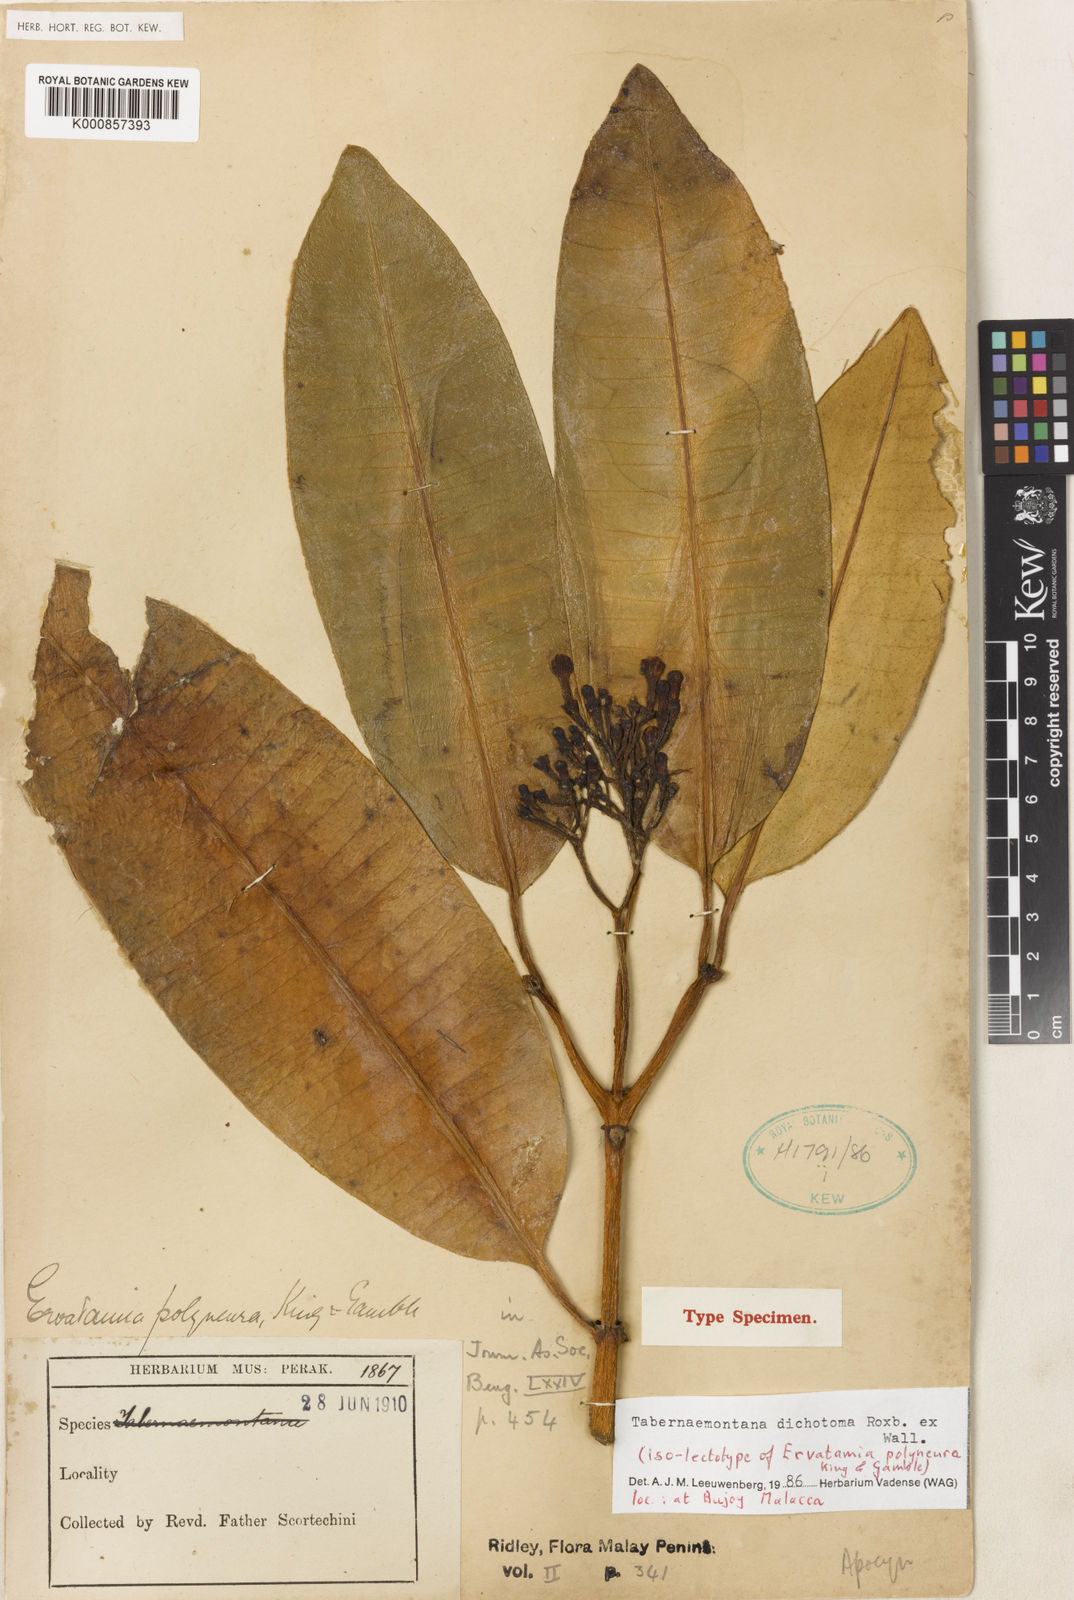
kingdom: Plantae
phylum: Tracheophyta
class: Magnoliopsida
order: Gentianales
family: Apocynaceae
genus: Tabernaemontana
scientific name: Tabernaemontana dichotoma
